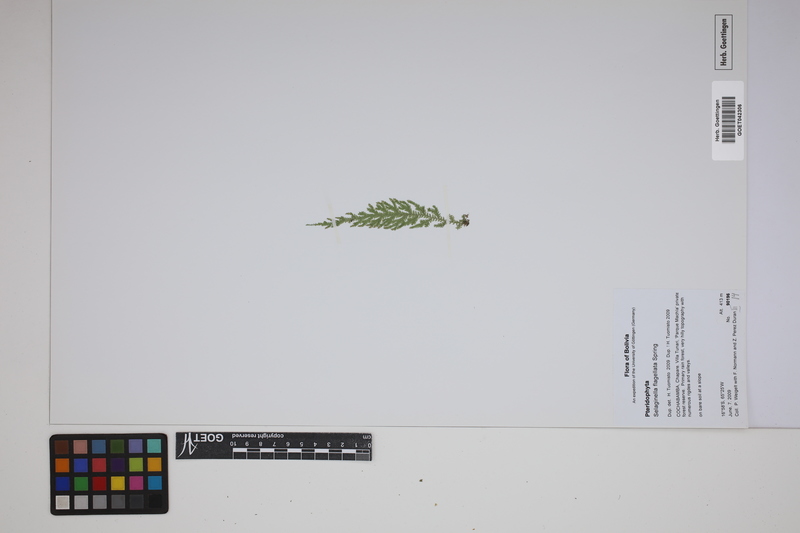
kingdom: Plantae
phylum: Tracheophyta
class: Lycopodiopsida
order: Selaginellales
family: Selaginellaceae
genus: Selaginella
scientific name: Selaginella flagellata
